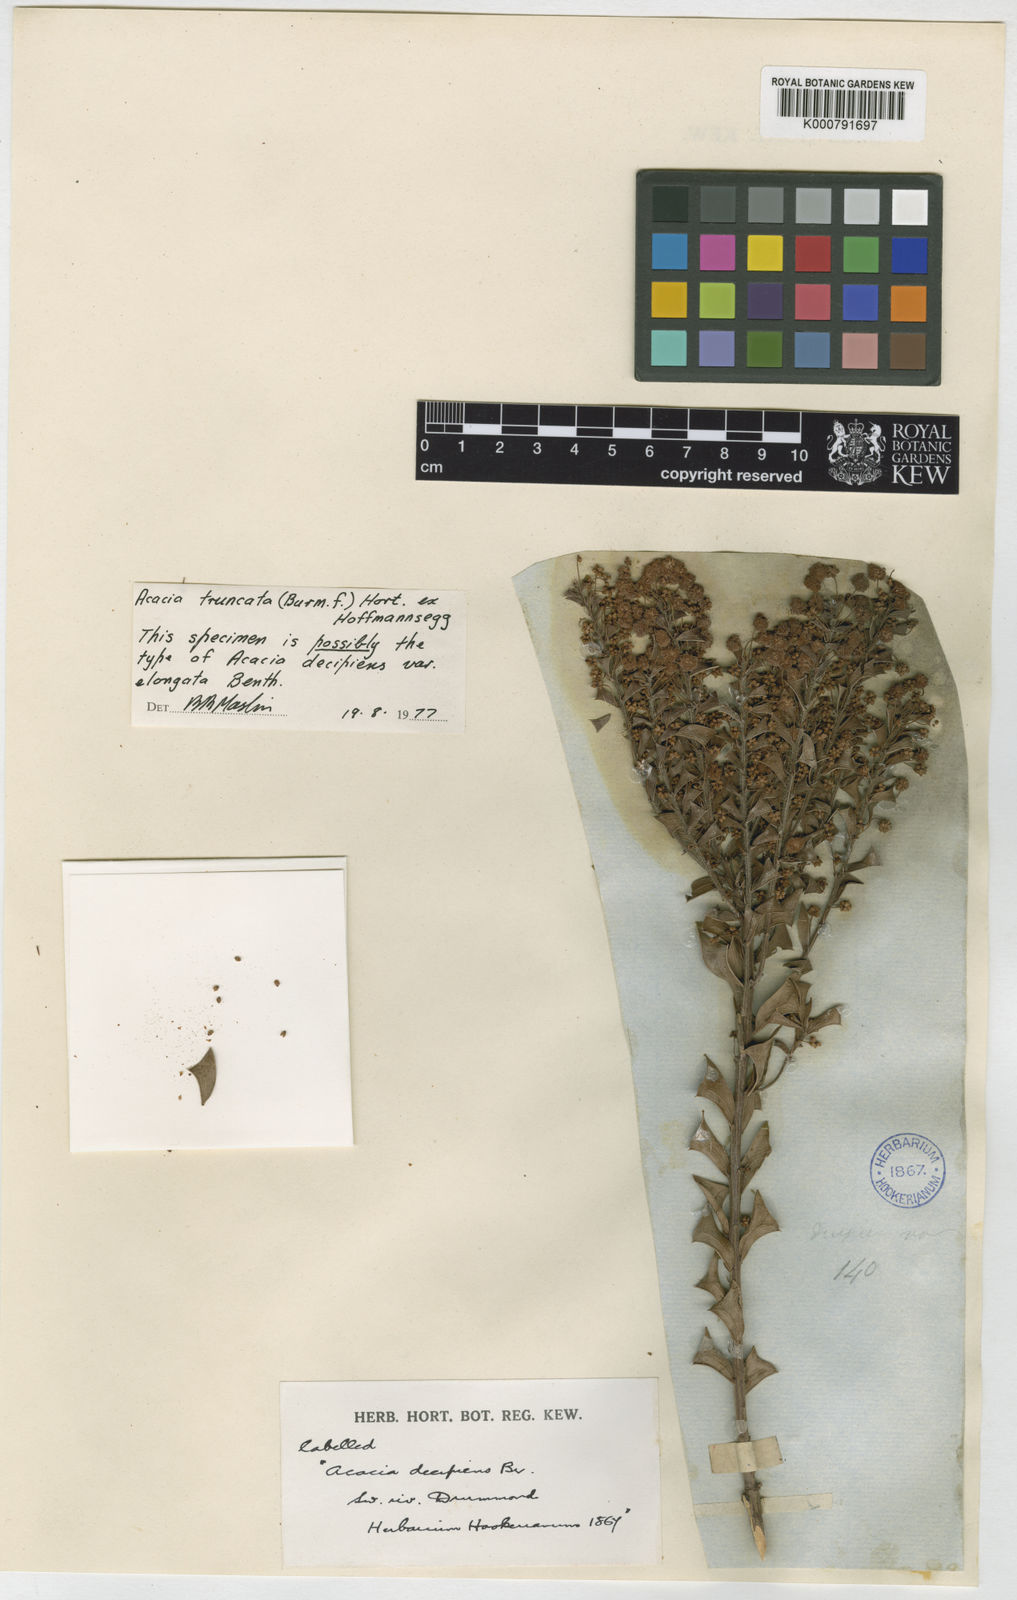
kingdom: Plantae
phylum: Tracheophyta
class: Magnoliopsida
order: Fabales
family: Fabaceae
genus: Acacia
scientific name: Acacia truncata
